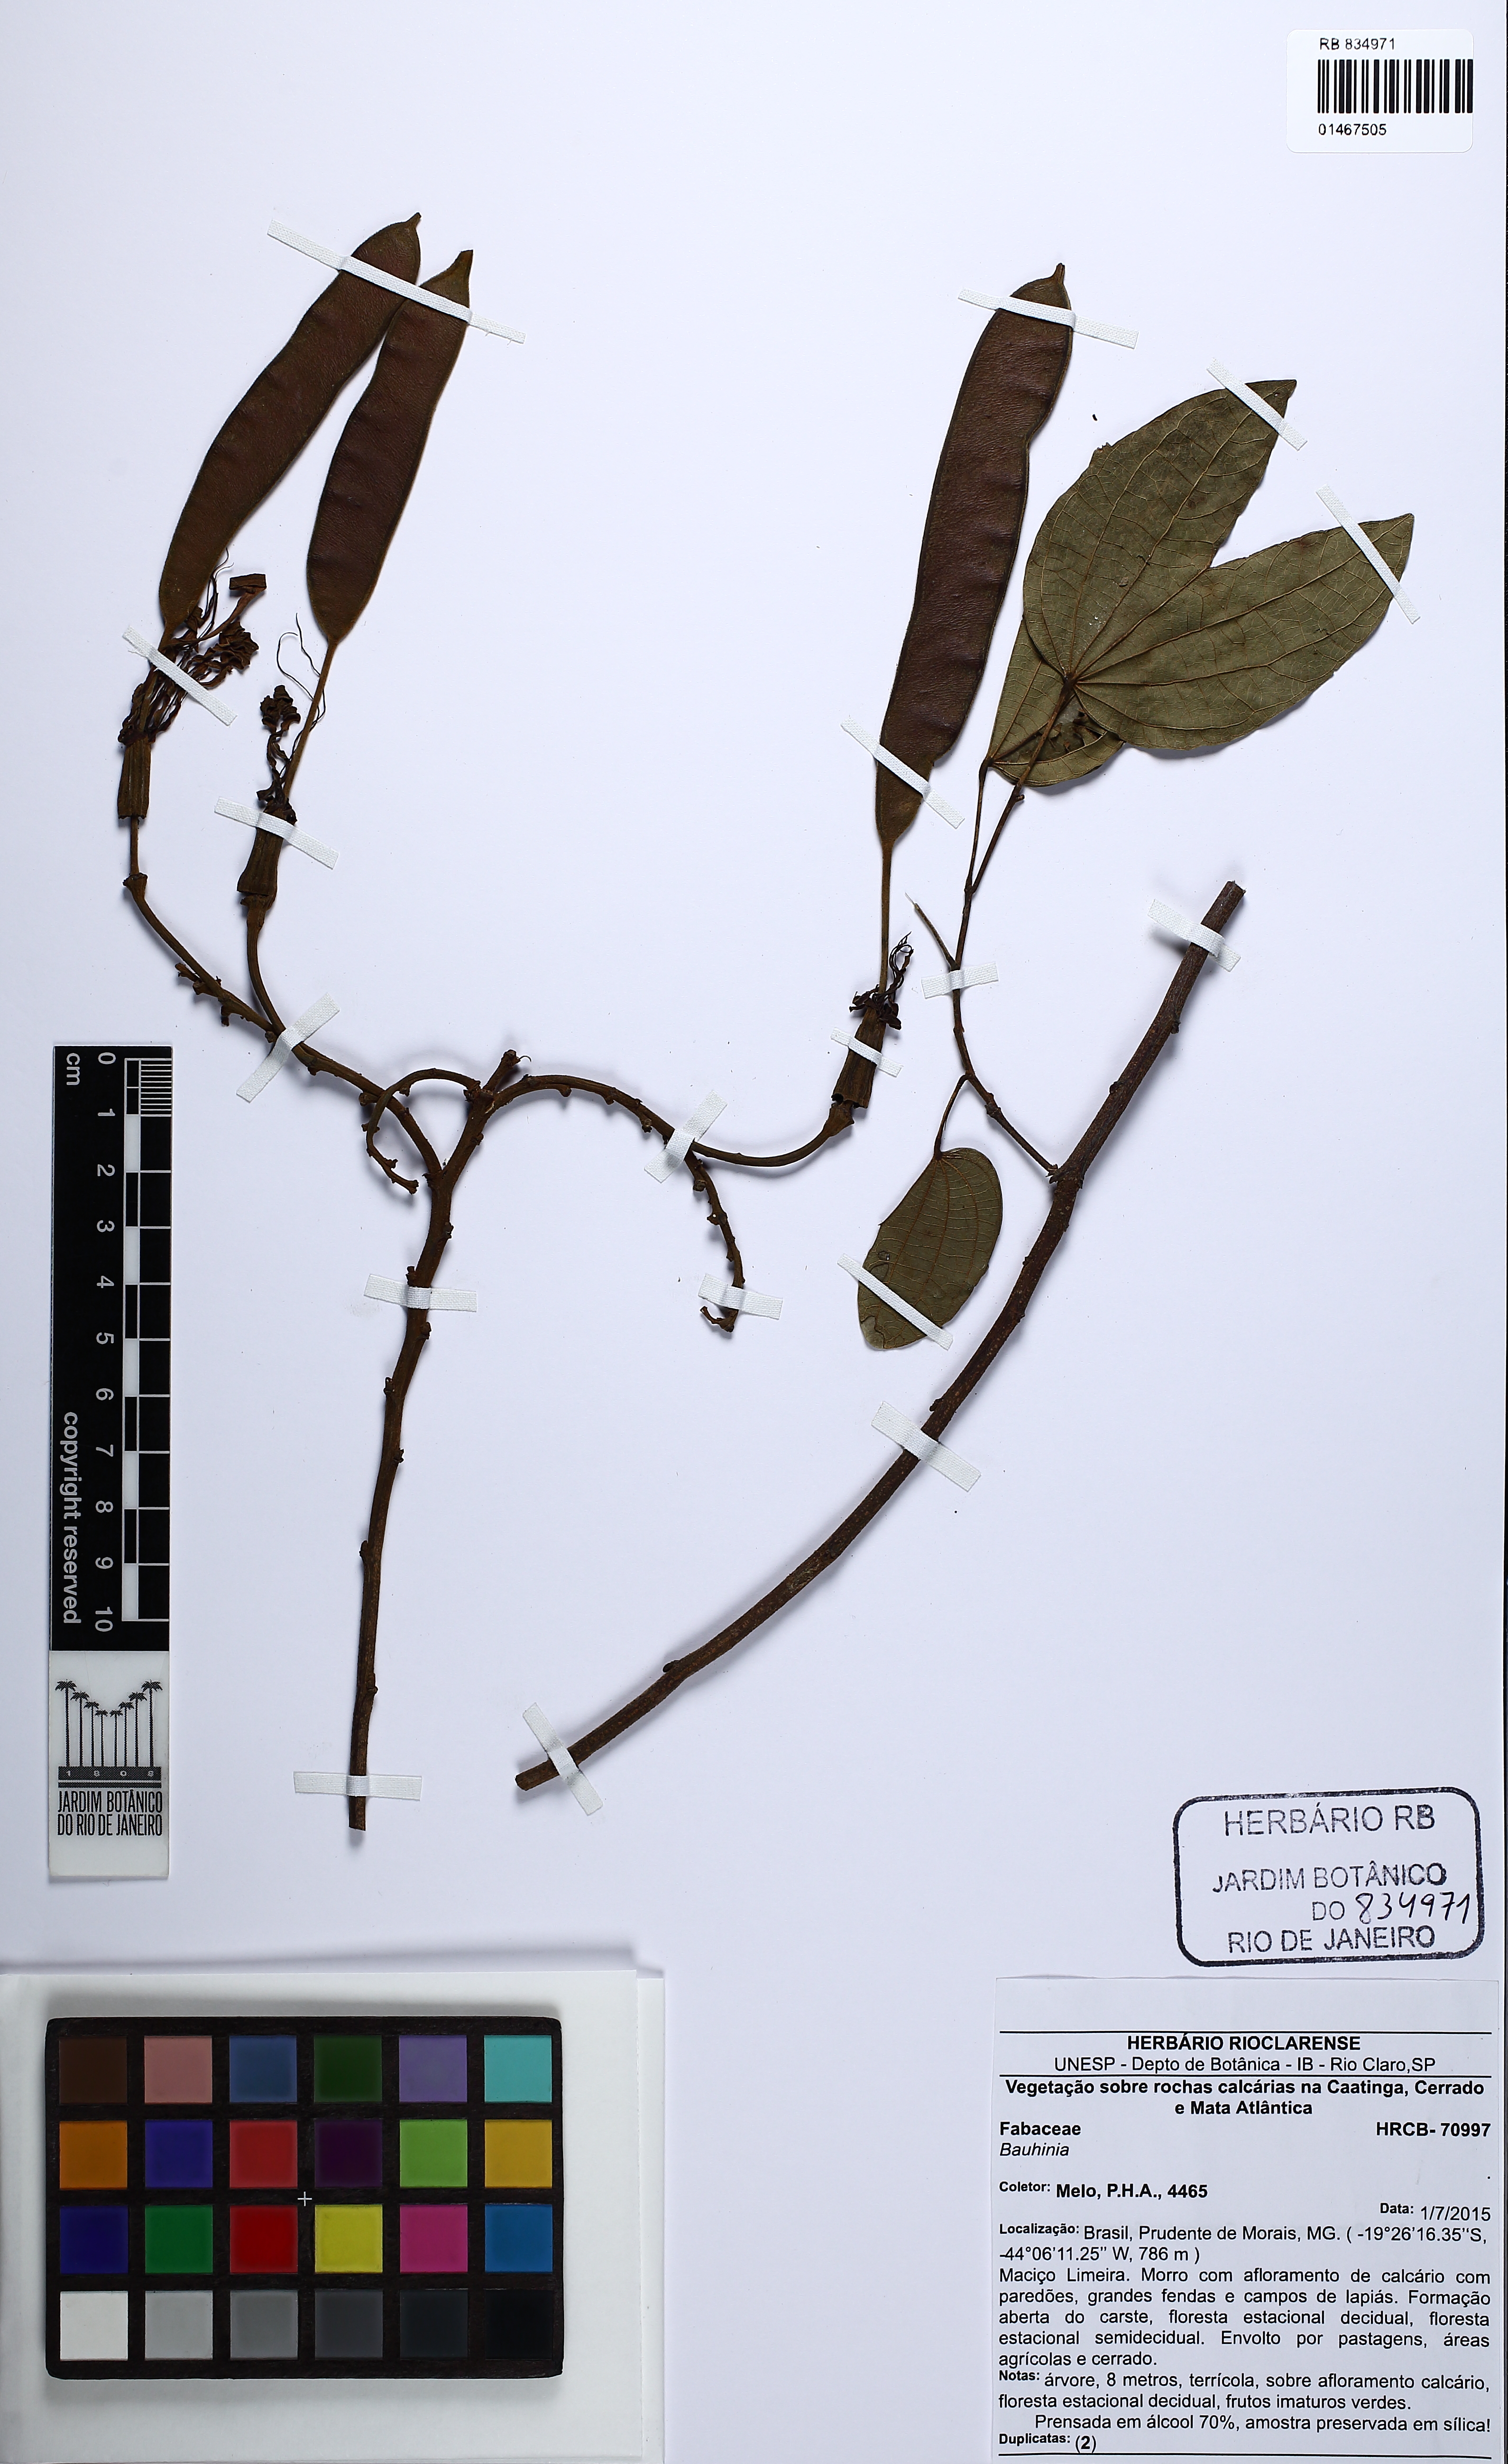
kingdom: Plantae
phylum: Tracheophyta
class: Magnoliopsida
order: Fabales
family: Fabaceae
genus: Bauhinia
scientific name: Bauhinia
